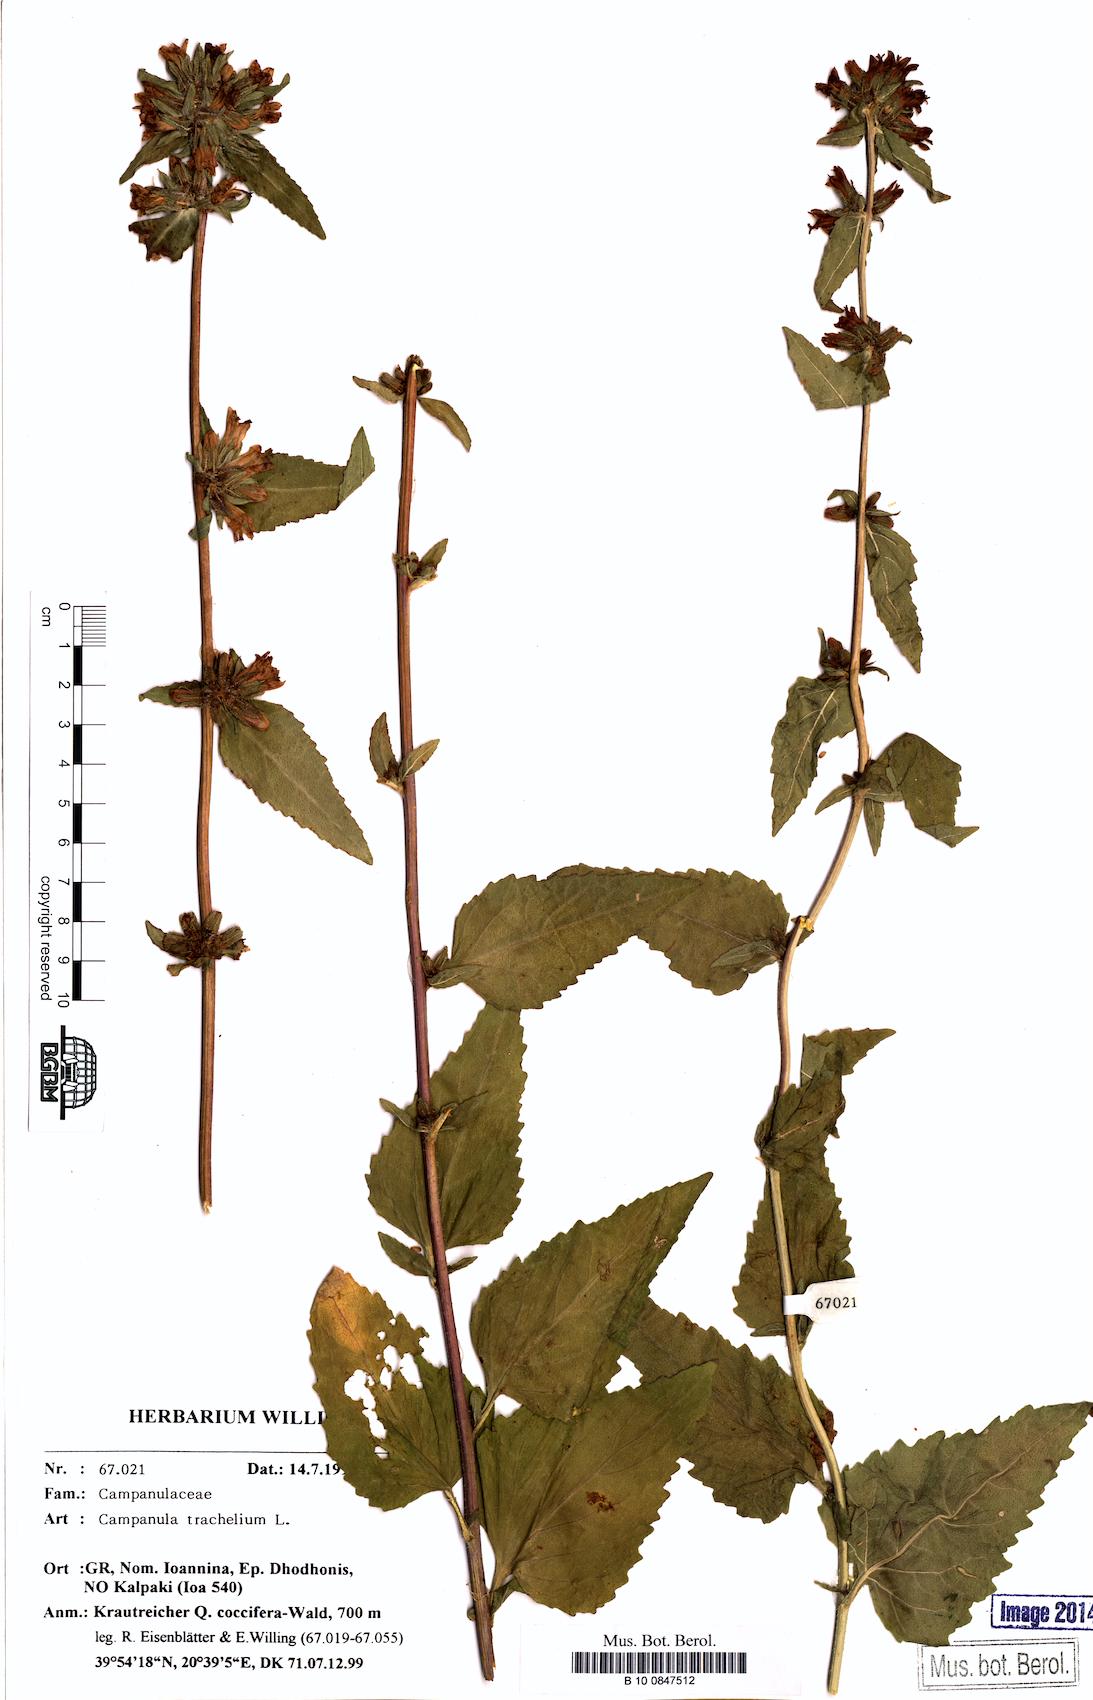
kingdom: Plantae
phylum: Tracheophyta
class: Magnoliopsida
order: Asterales
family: Campanulaceae
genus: Campanula
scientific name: Campanula trachelium
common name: Nettle-leaved bellflower
